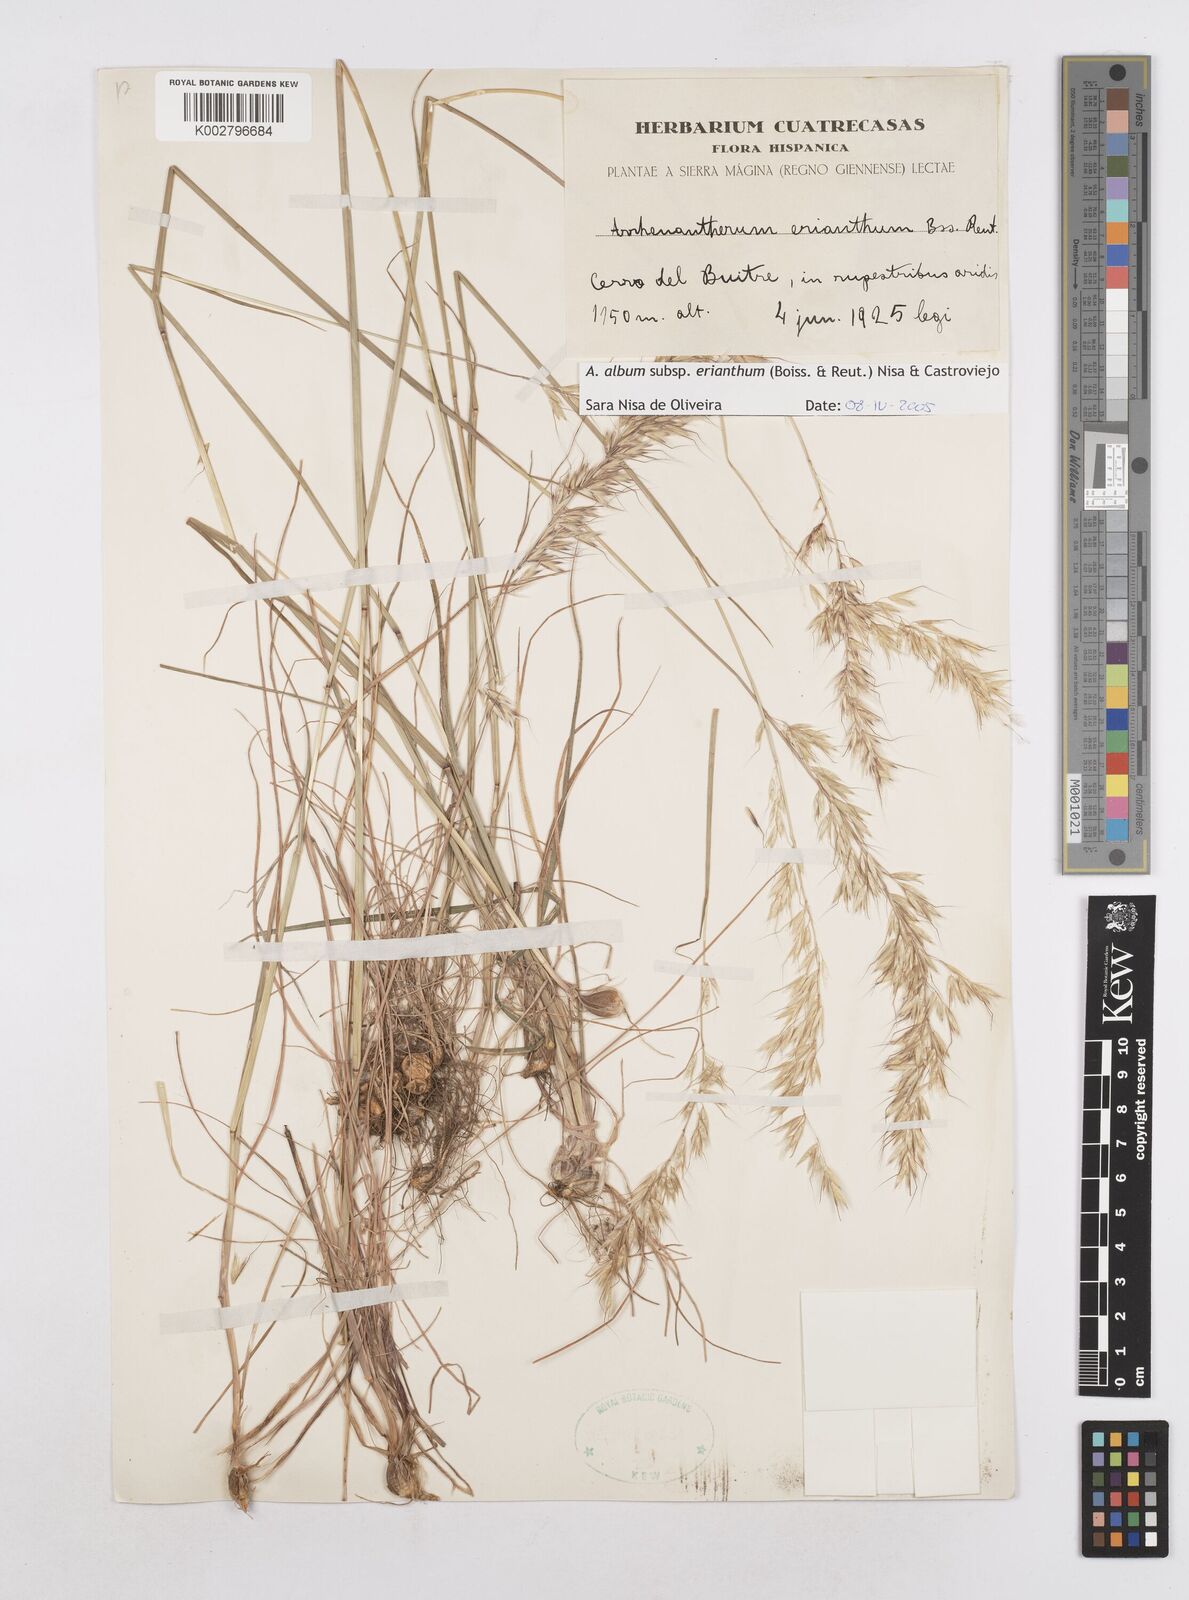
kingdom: Plantae
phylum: Tracheophyta
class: Liliopsida
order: Poales
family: Poaceae
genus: Arrhenatherum
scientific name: Arrhenatherum album
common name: Tall oat grass
